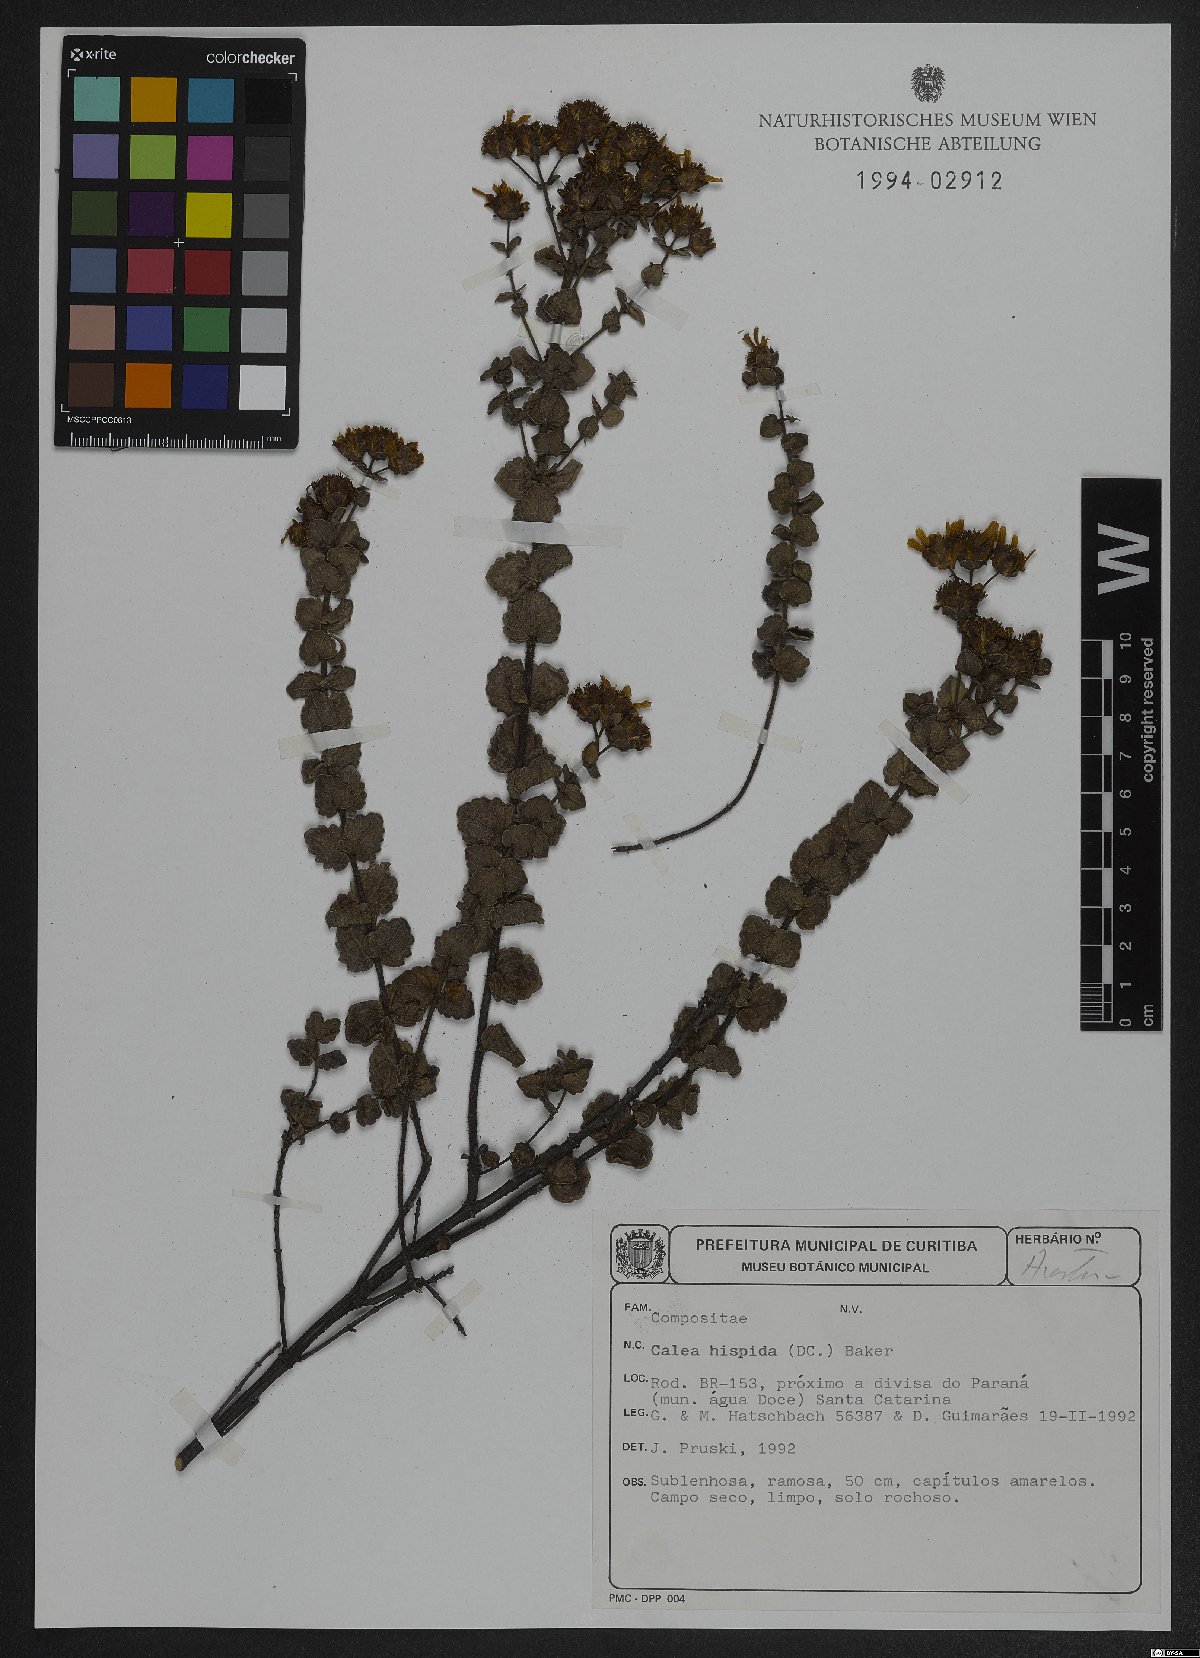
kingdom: Plantae
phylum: Tracheophyta
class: Magnoliopsida
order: Asterales
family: Asteraceae
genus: Calea
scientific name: Calea triantha
